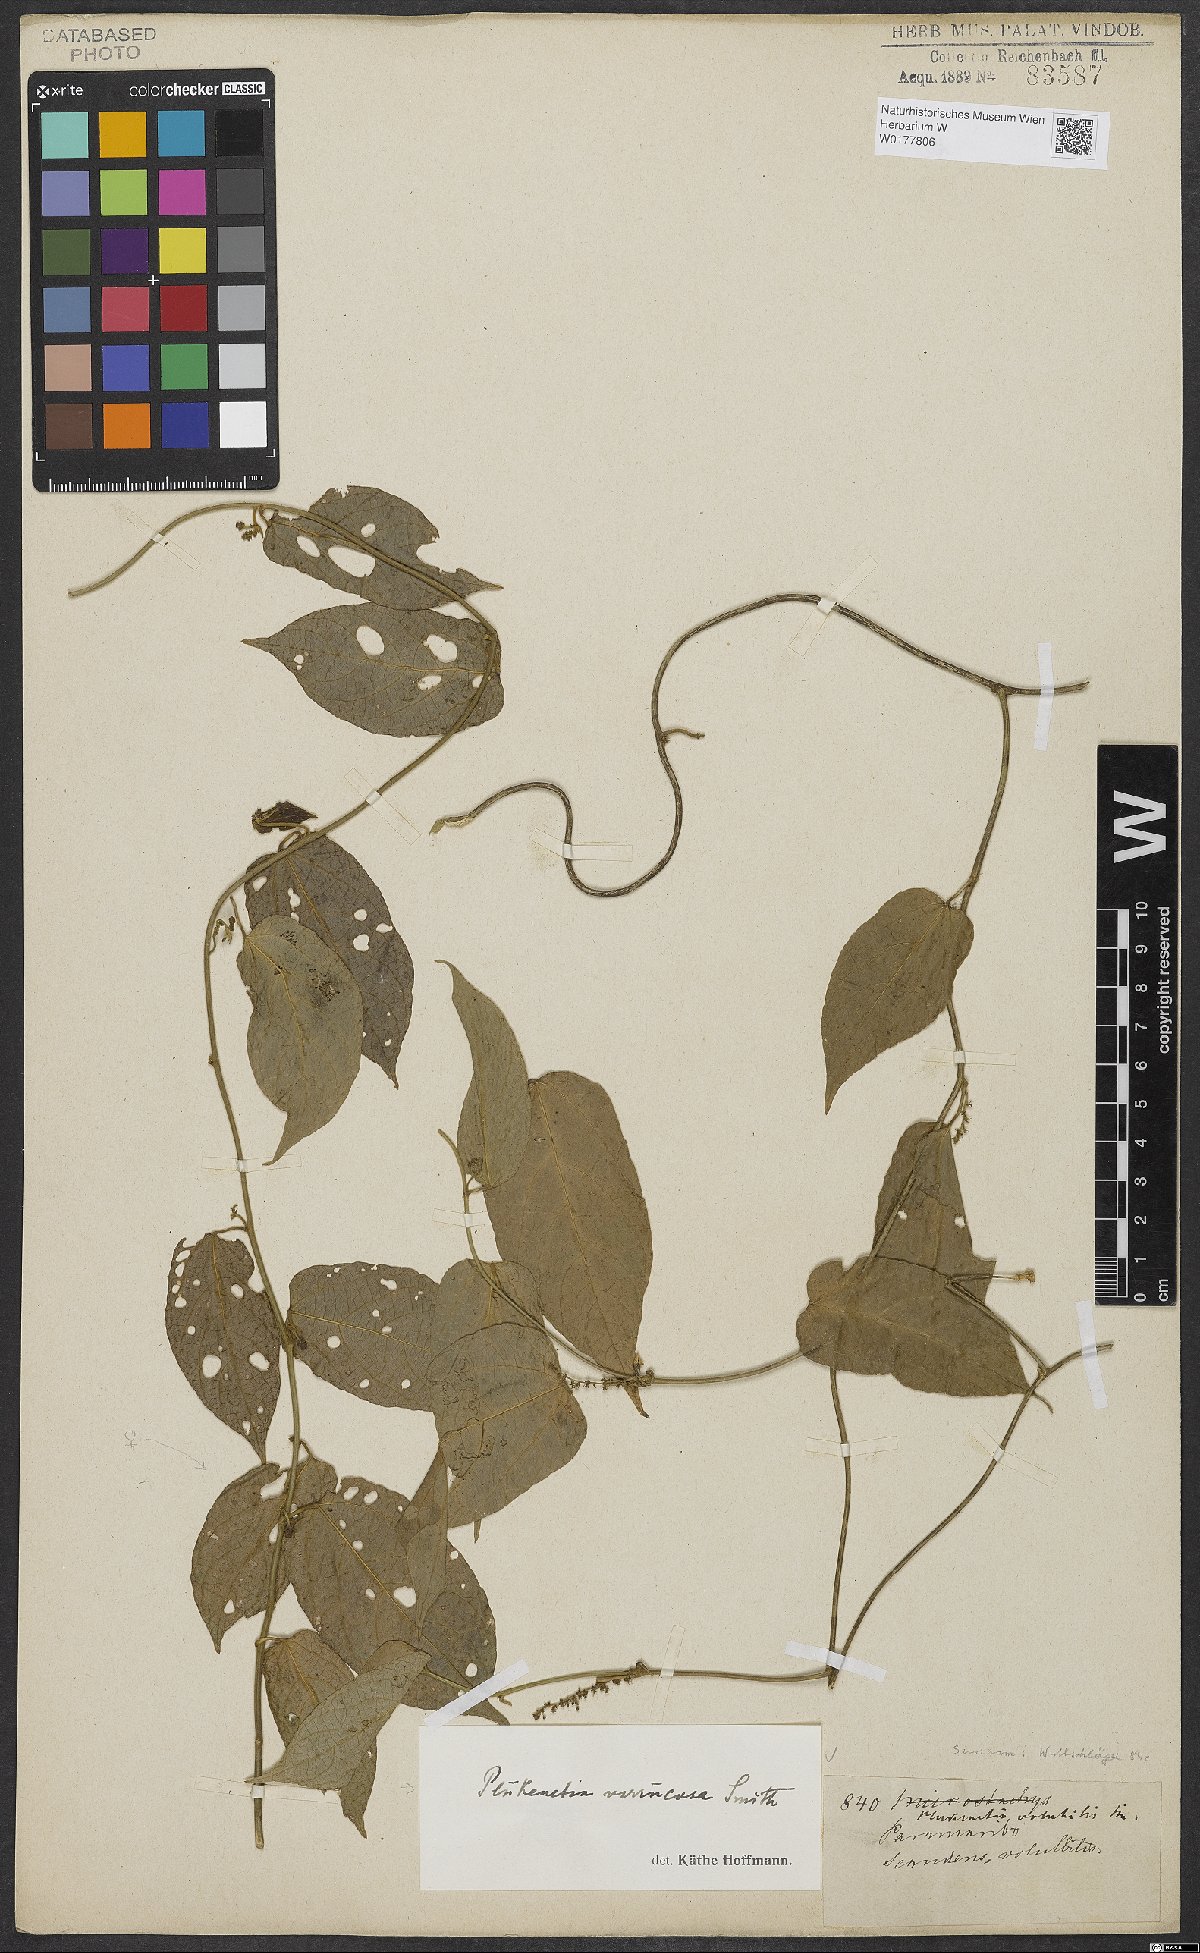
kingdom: Plantae
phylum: Tracheophyta
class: Magnoliopsida
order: Malpighiales
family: Euphorbiaceae
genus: Plukenetia
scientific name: Plukenetia verrucosa
